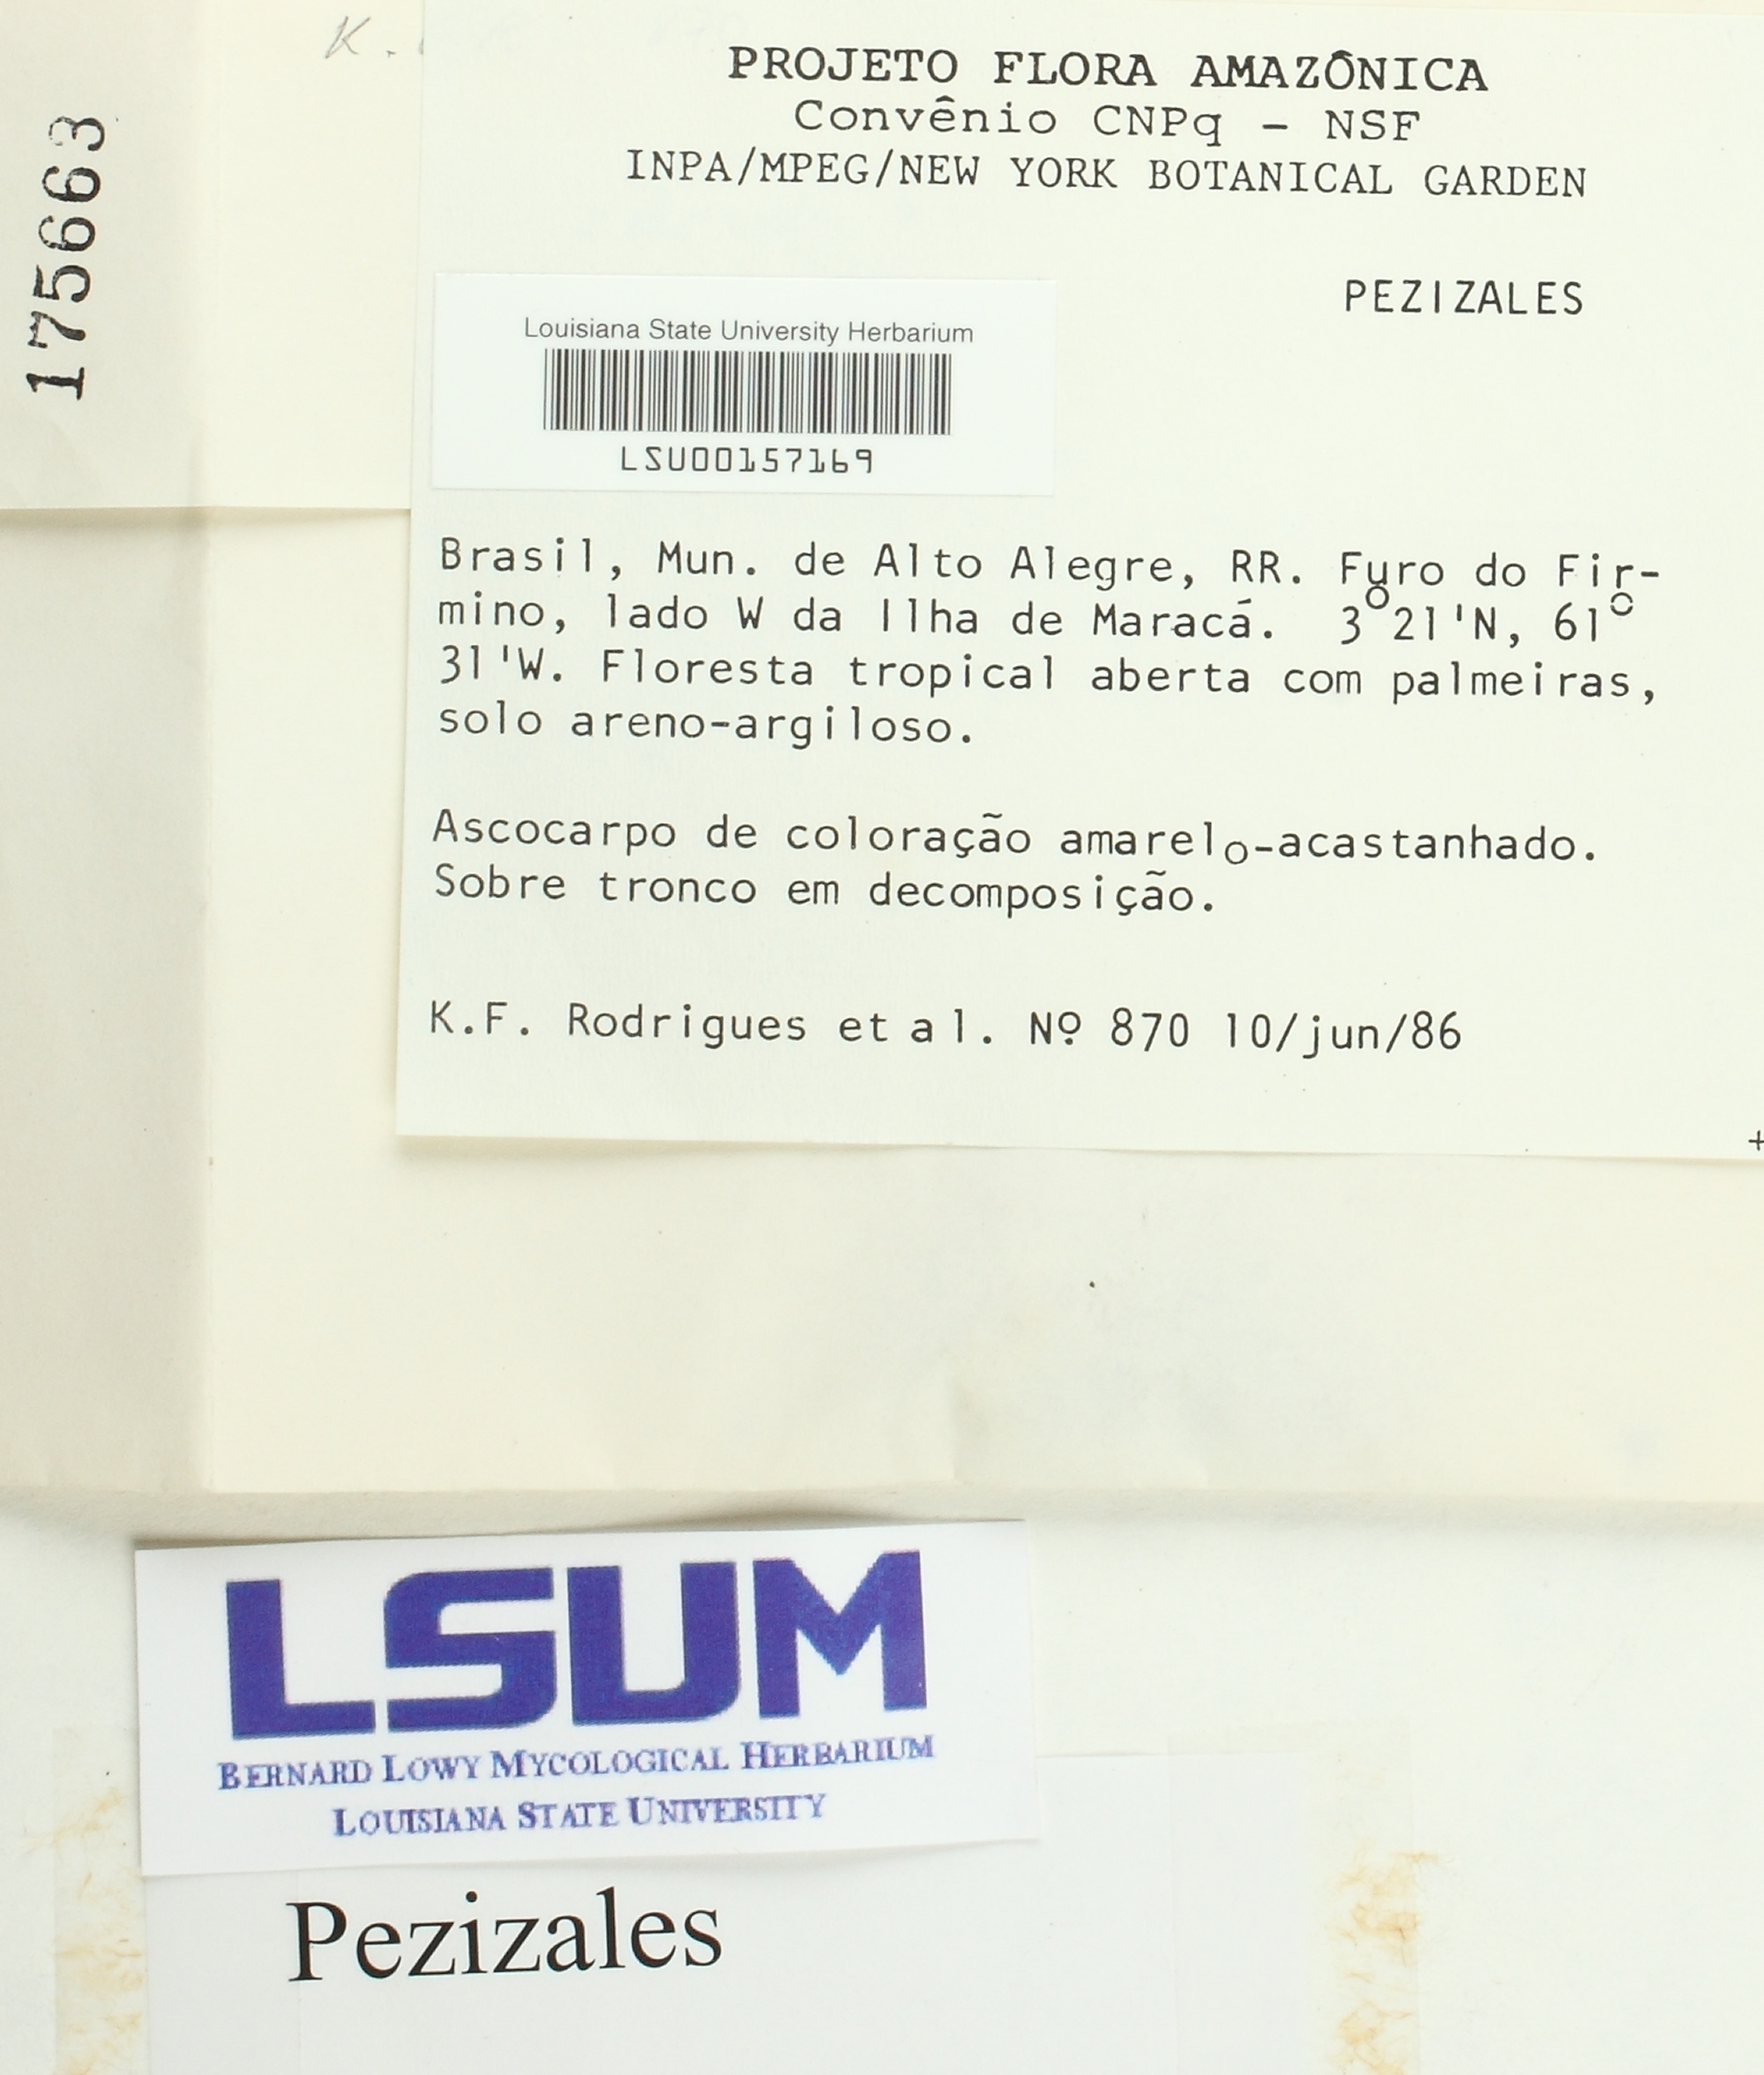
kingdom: Fungi
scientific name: Fungi
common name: Fungi
